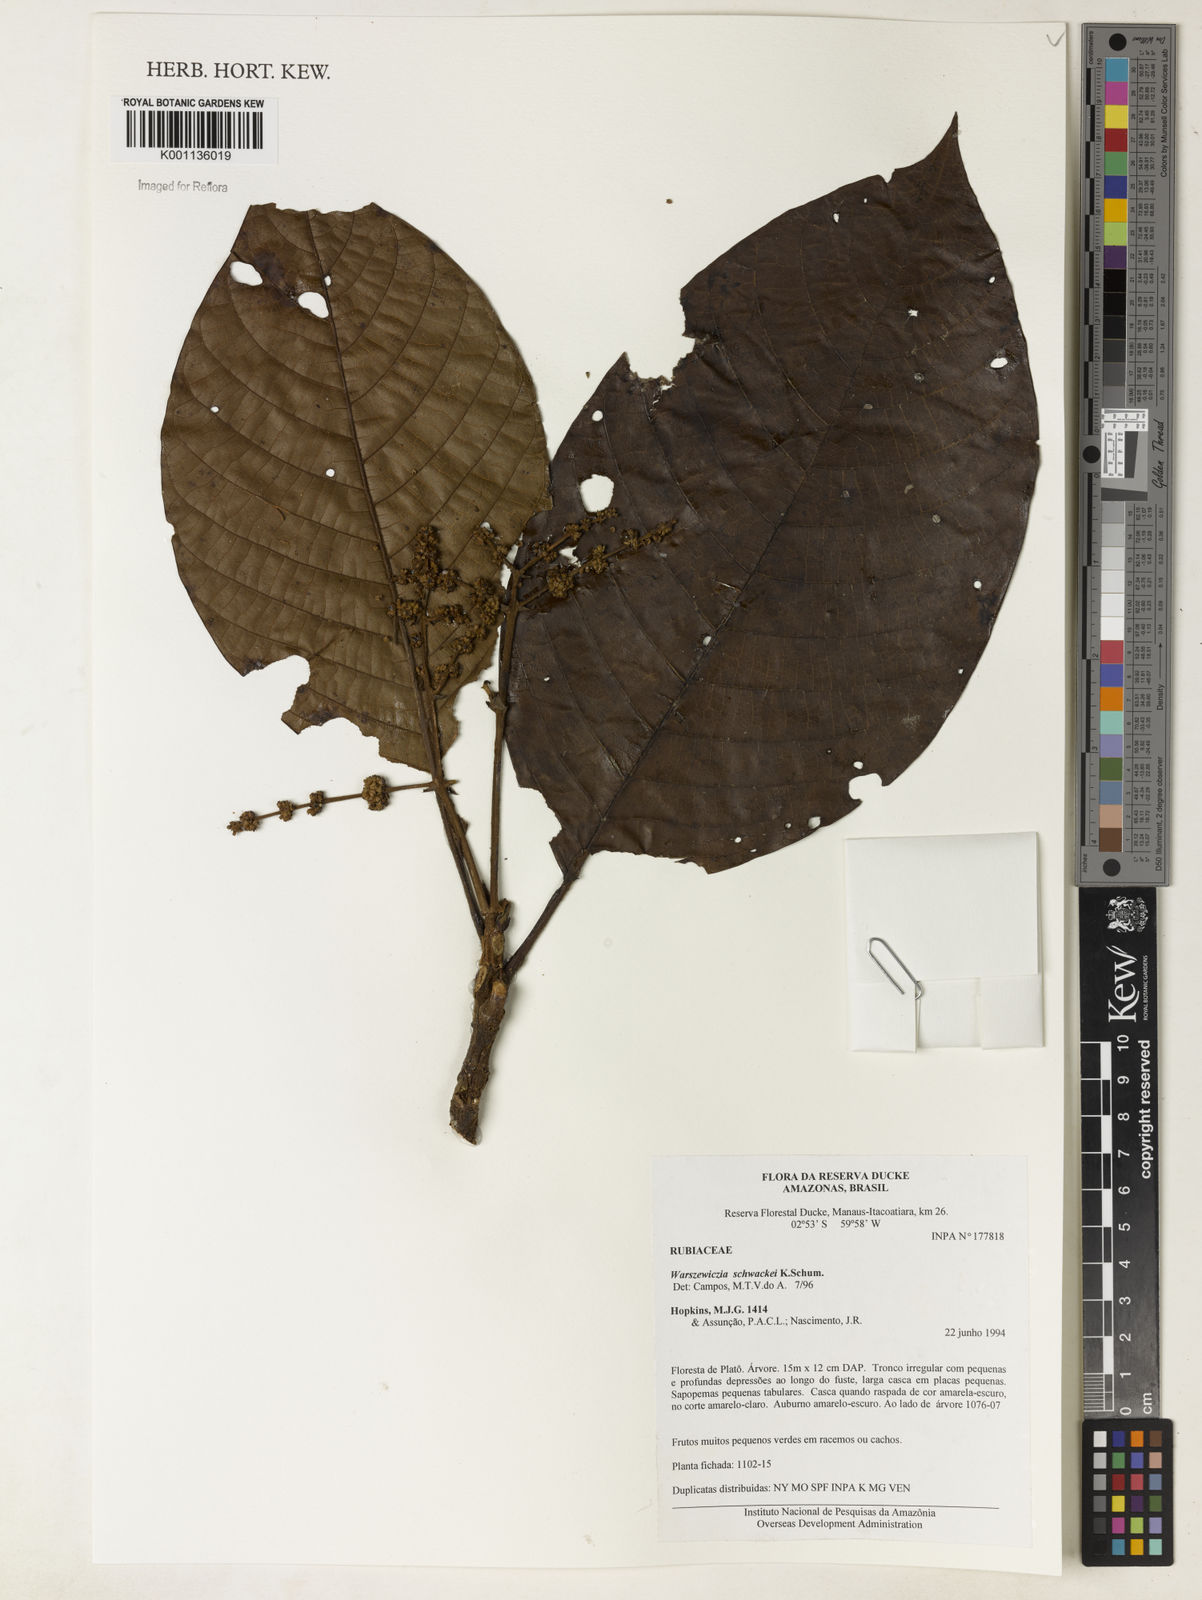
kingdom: Plantae
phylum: Tracheophyta
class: Magnoliopsida
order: Gentianales
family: Rubiaceae
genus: Warszewiczia
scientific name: Warszewiczia schwackei
